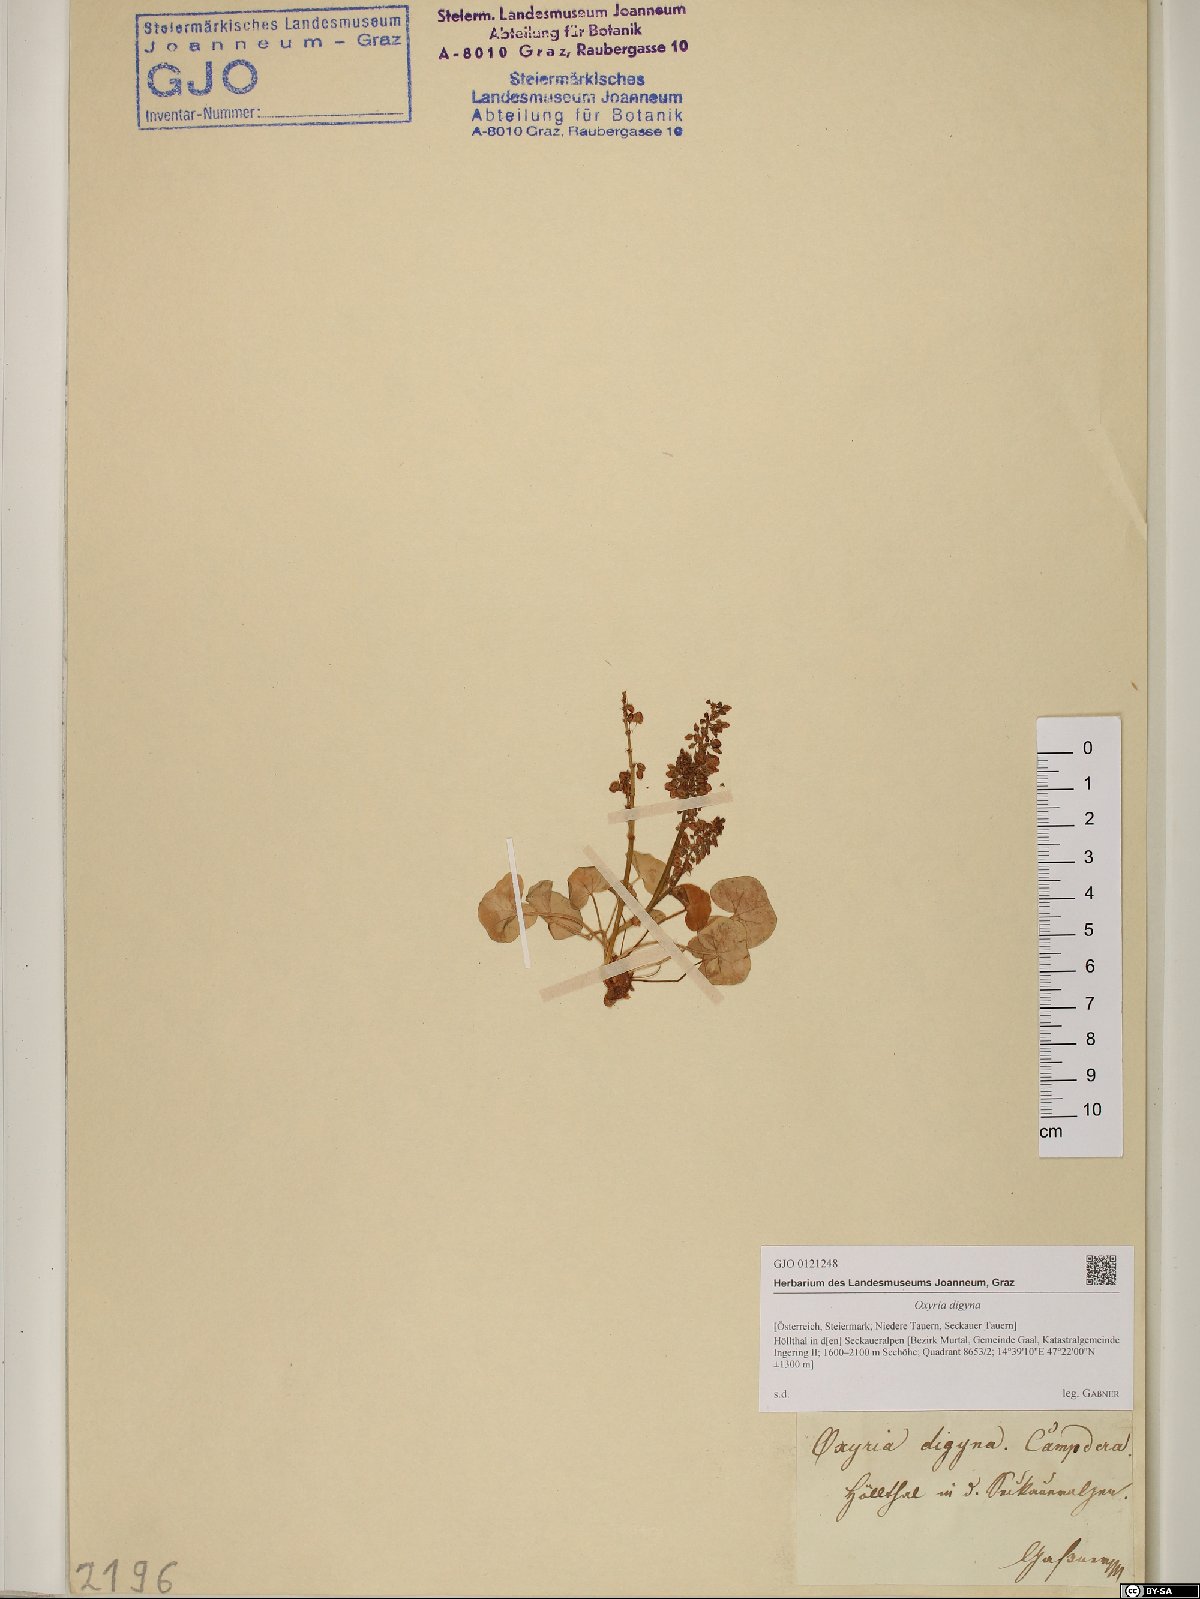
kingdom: Plantae
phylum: Tracheophyta
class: Magnoliopsida
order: Caryophyllales
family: Polygonaceae
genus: Oxyria
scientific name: Oxyria digyna
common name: Alpine mountain-sorrel
